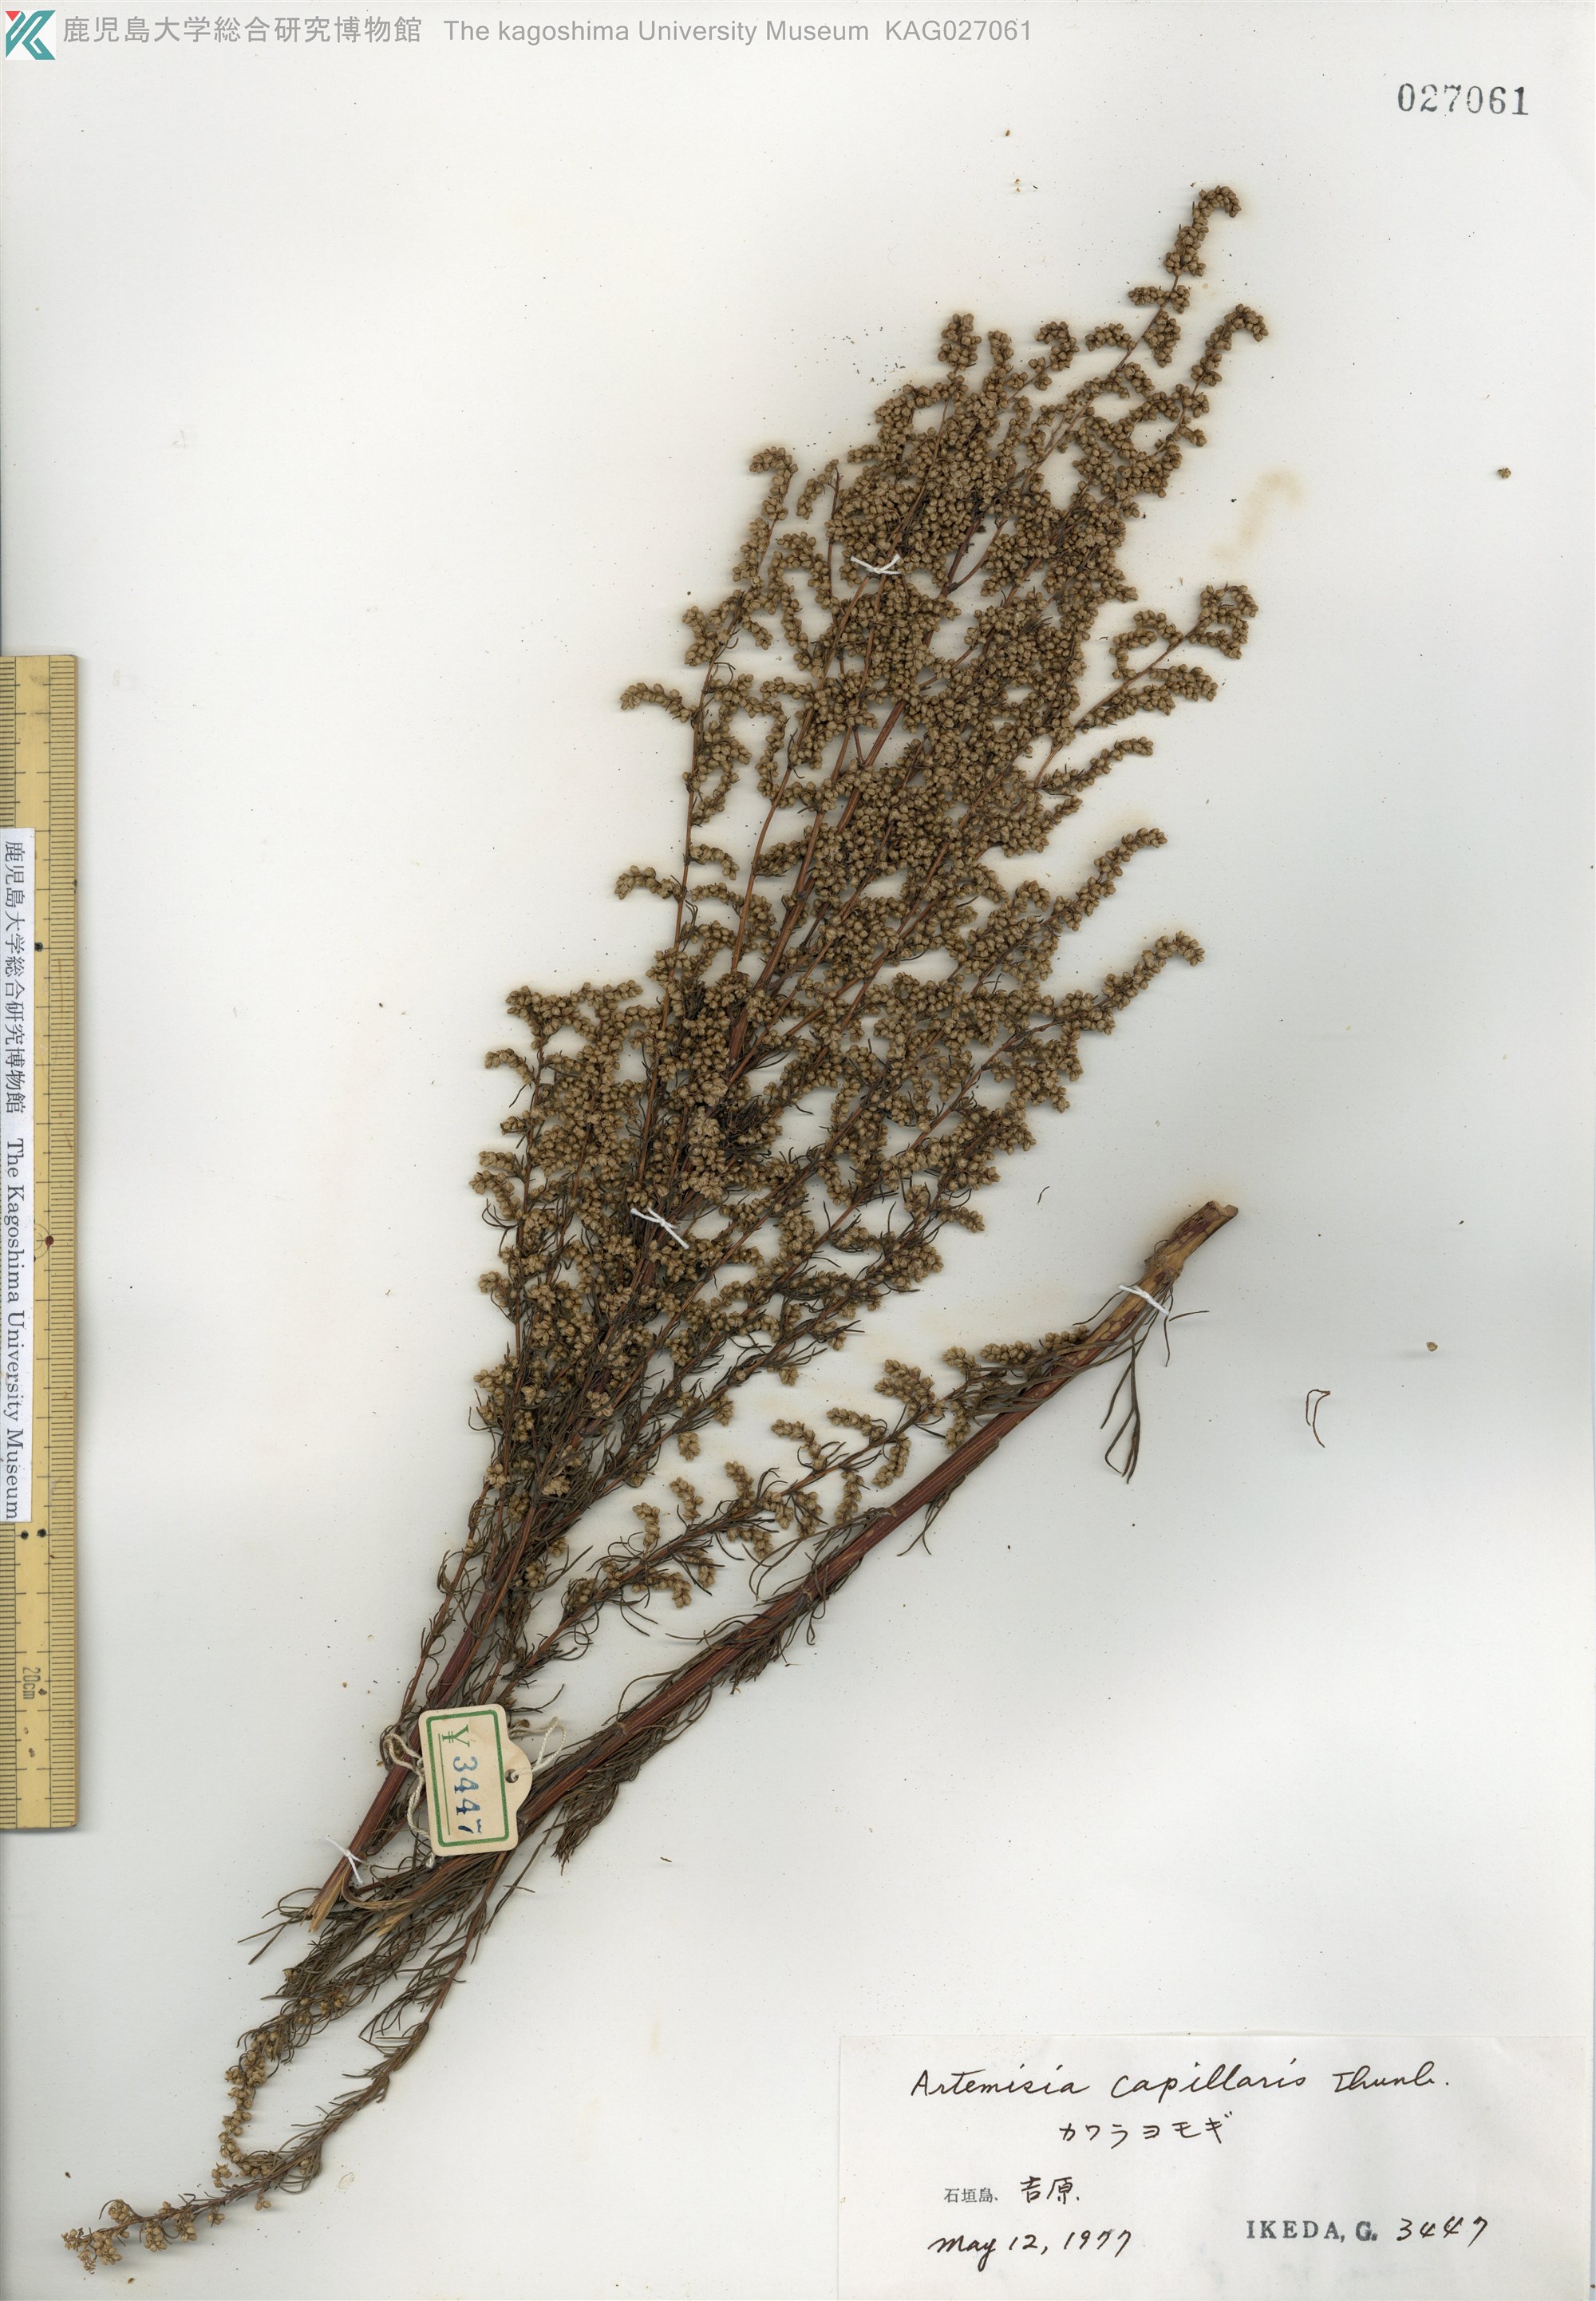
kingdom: Plantae
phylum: Tracheophyta
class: Magnoliopsida
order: Asterales
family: Asteraceae
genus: Artemisia
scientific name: Artemisia capillaris
